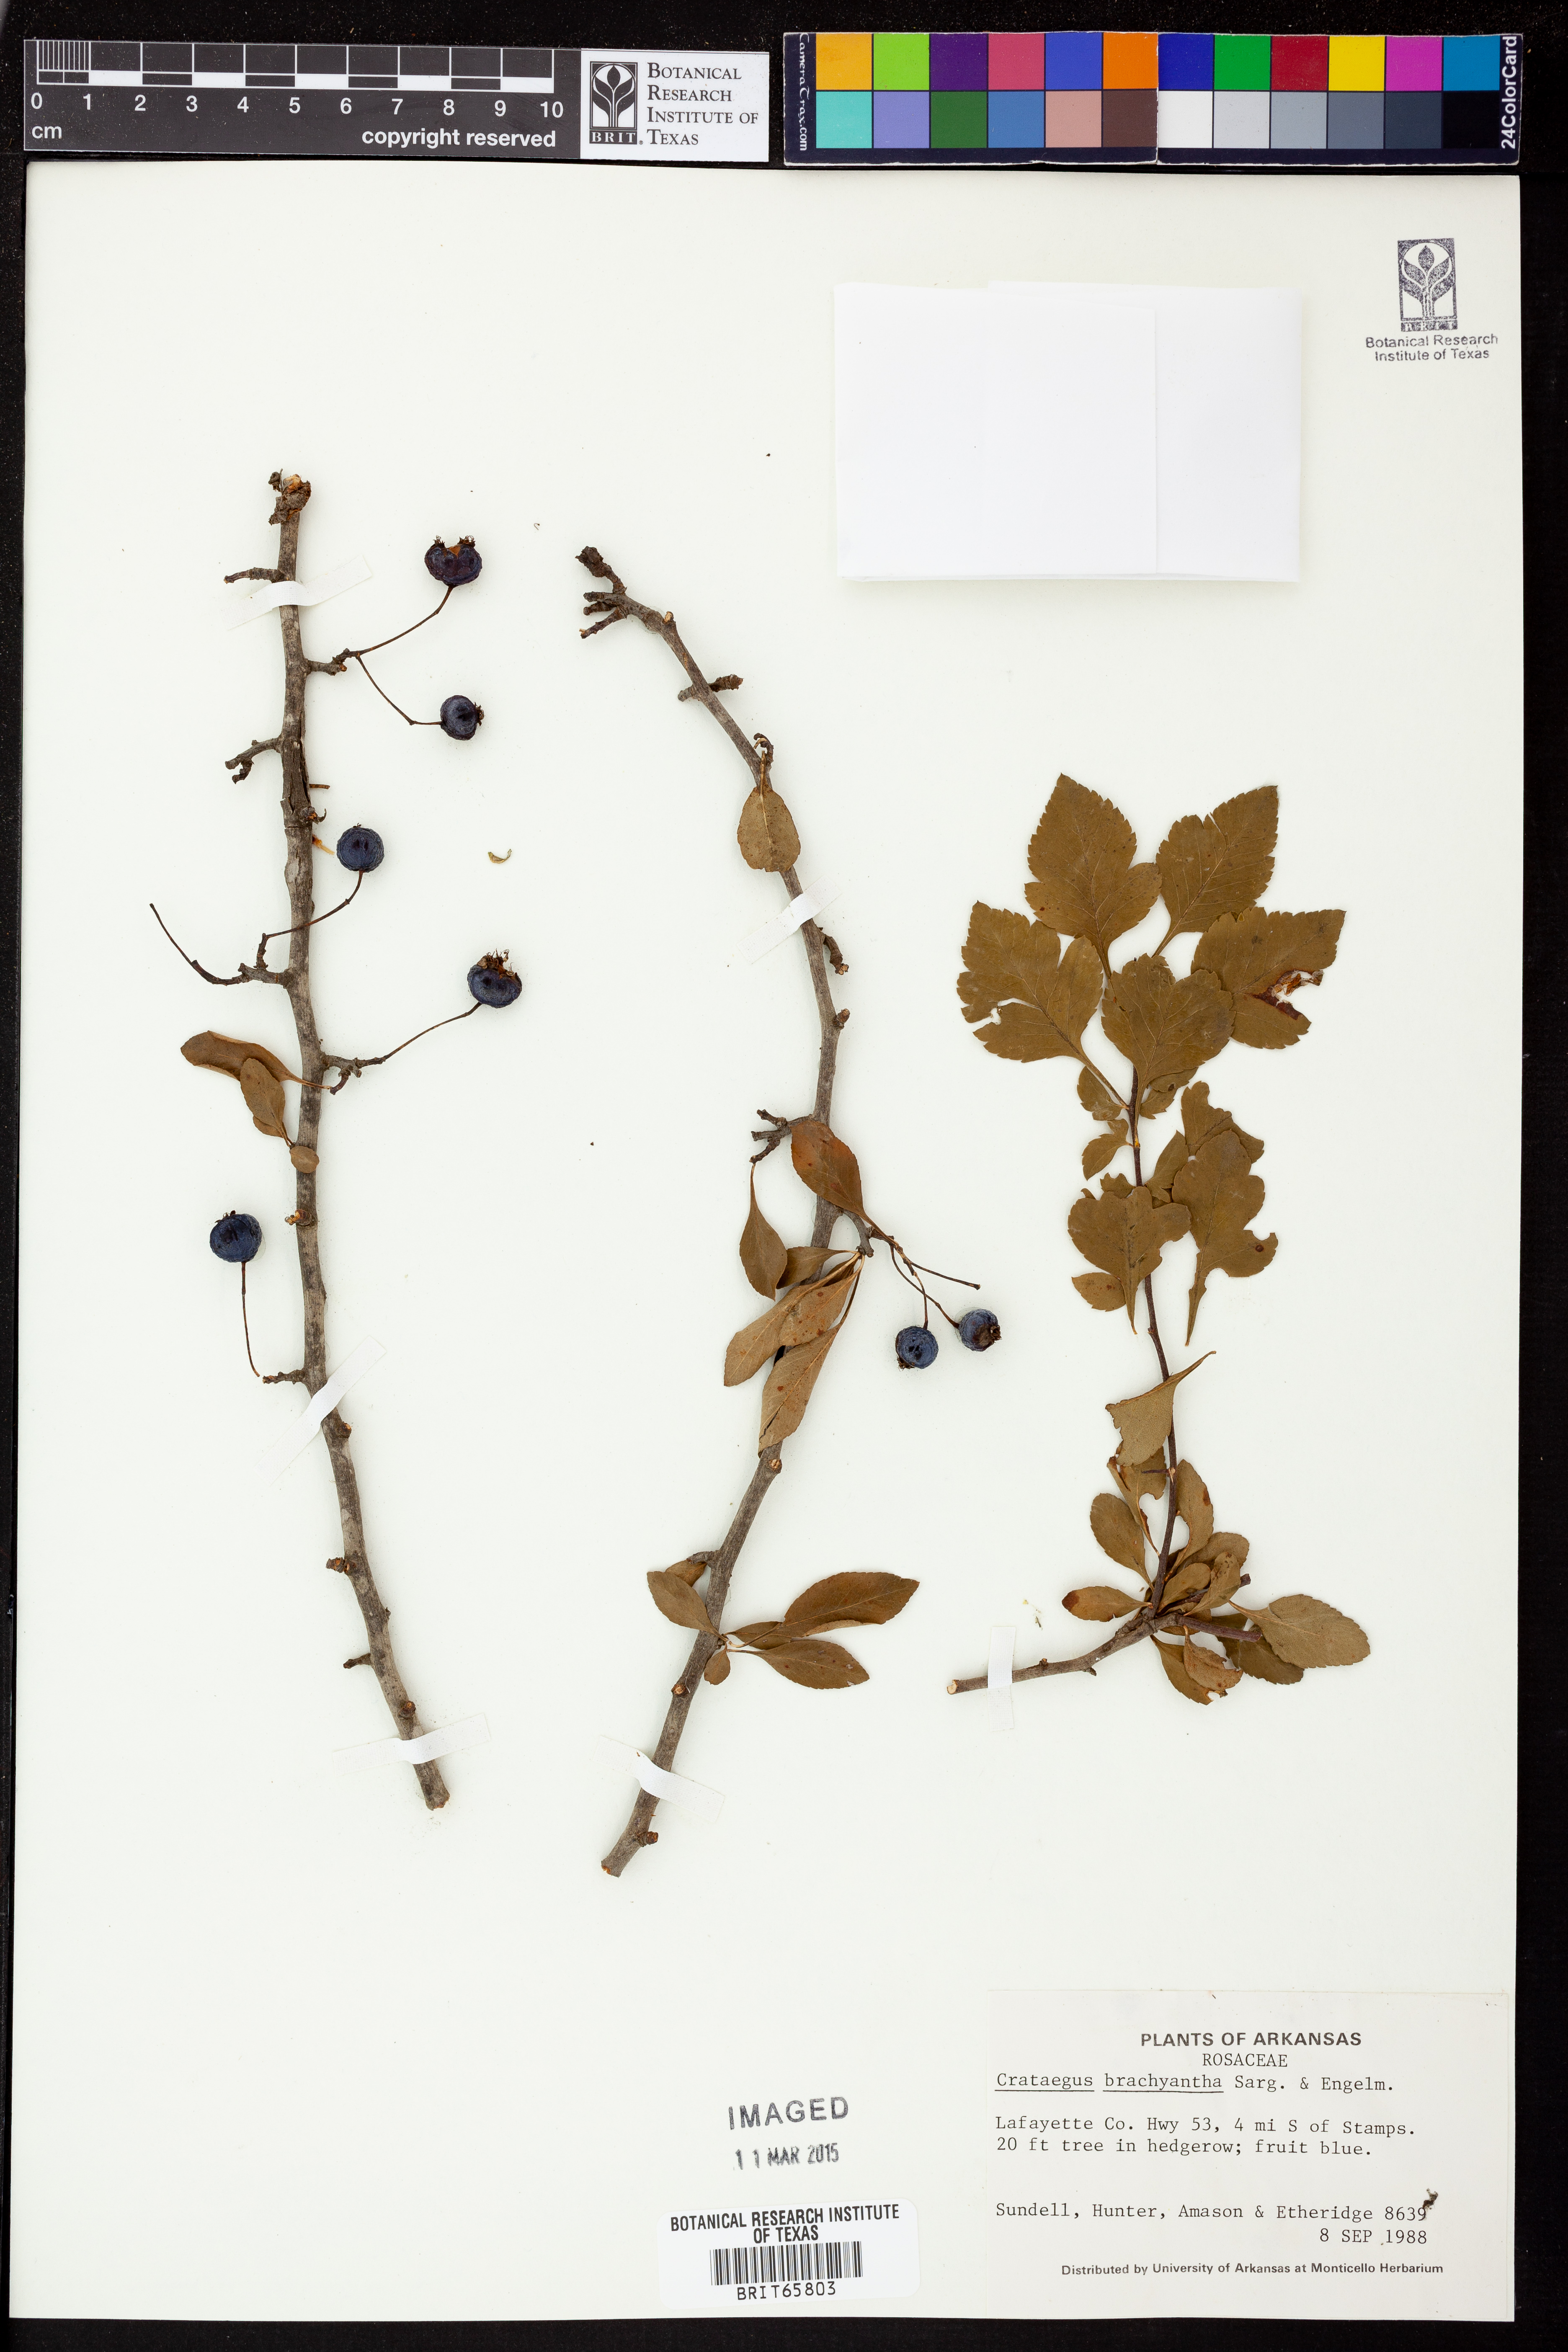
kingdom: Plantae
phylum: Tracheophyta
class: Magnoliopsida
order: Rosales
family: Rosaceae
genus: Crataegus
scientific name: Crataegus brachyacantha
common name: Blueberry-hawthorn
